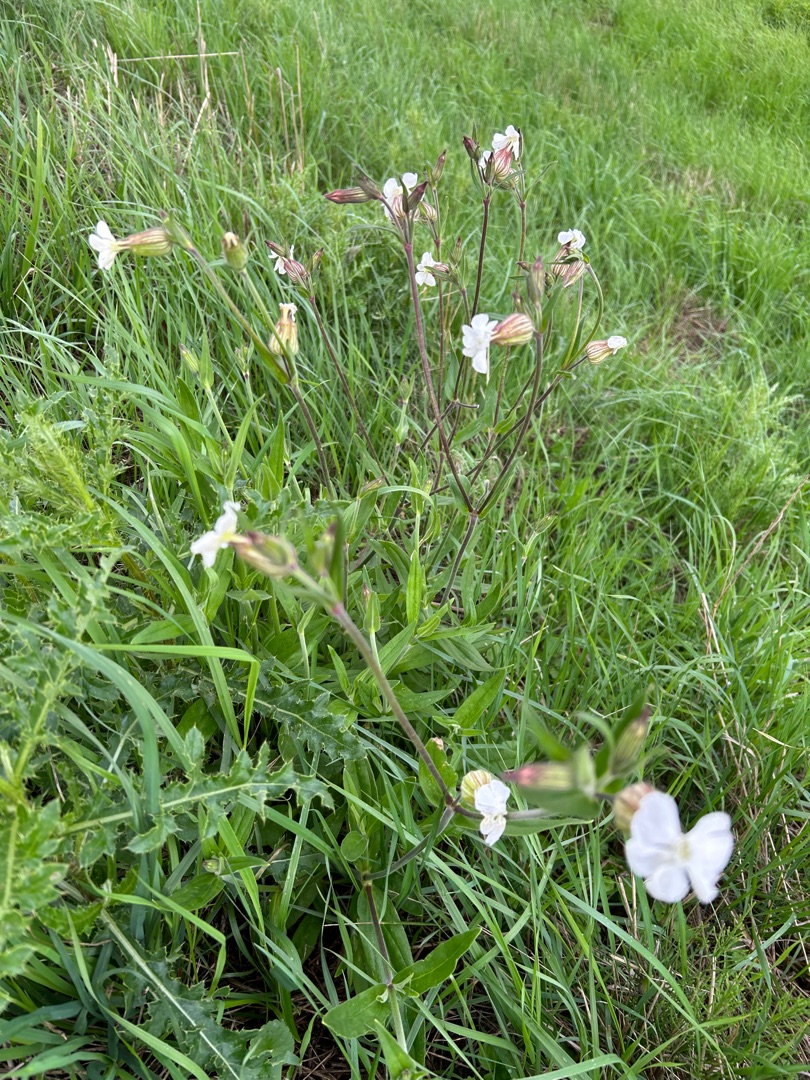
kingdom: Plantae
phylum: Tracheophyta
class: Magnoliopsida
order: Caryophyllales
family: Caryophyllaceae
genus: Silene
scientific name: Silene latifolia
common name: Aftenpragtstjerne
